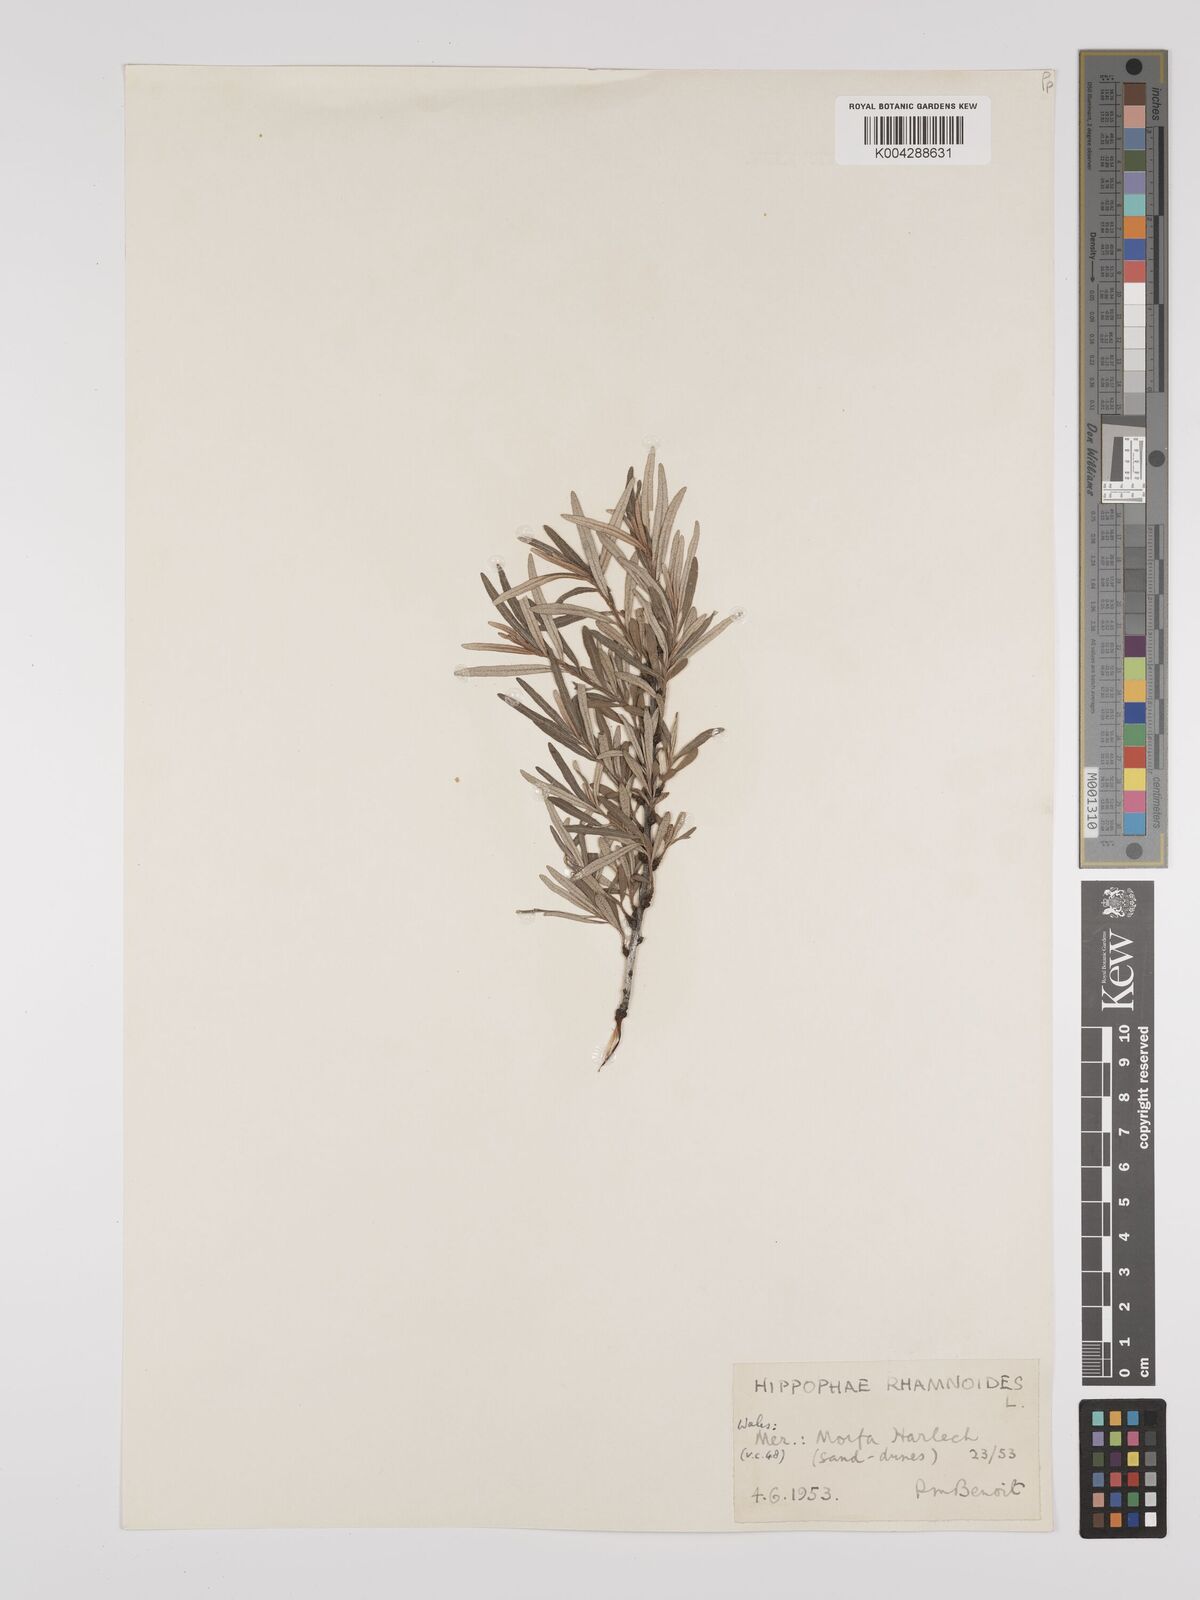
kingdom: Plantae
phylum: Tracheophyta
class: Magnoliopsida
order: Rosales
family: Elaeagnaceae
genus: Hippophae
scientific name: Hippophae rhamnoides
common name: Sea-buckthorn
